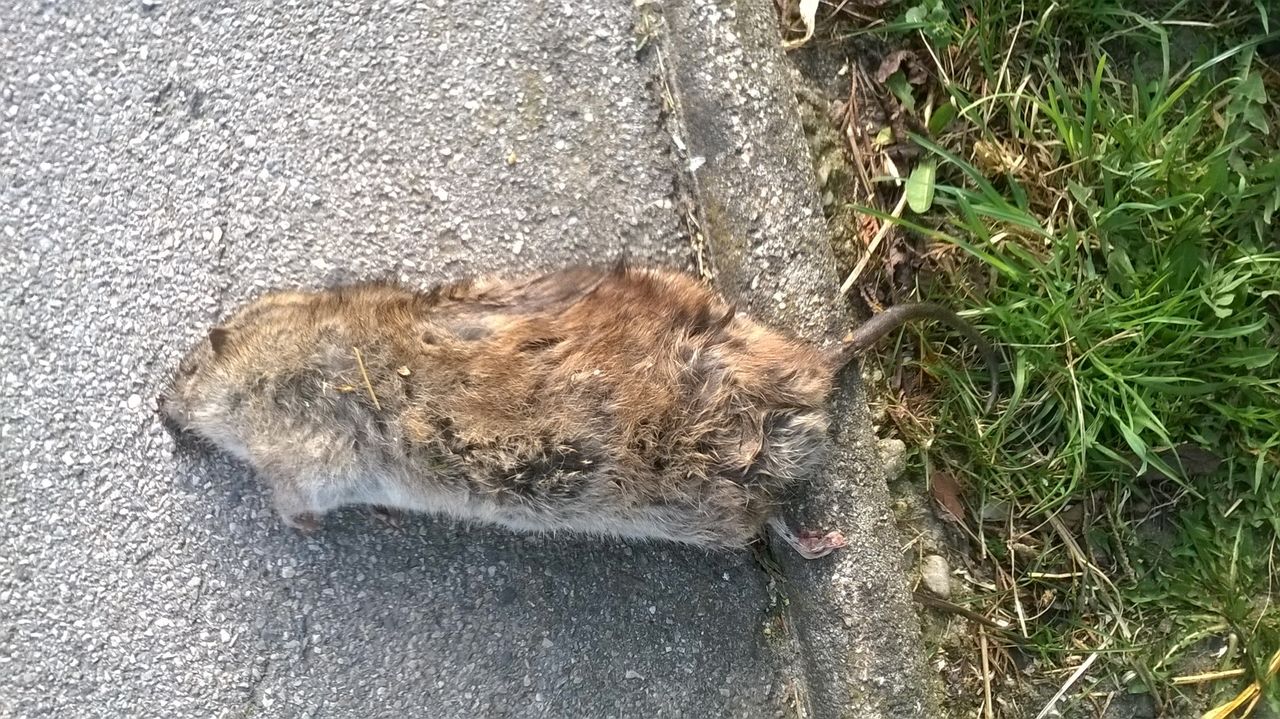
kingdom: Animalia
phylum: Chordata
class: Mammalia
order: Rodentia
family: Cricetidae
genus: Arvicola
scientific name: Arvicola amphibius
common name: European water vole
